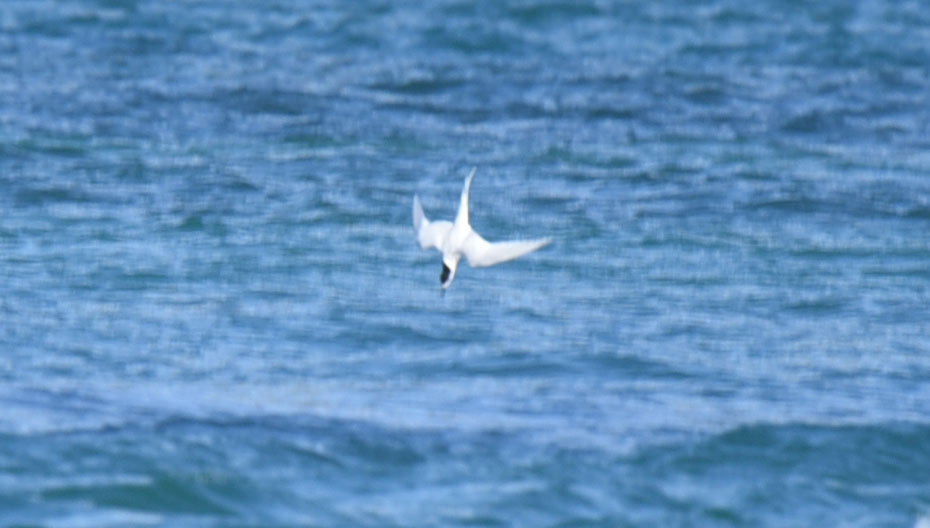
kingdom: Animalia
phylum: Chordata
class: Aves
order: Charadriiformes
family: Laridae
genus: Sterna
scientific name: Sterna striata
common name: White-fronted tern
